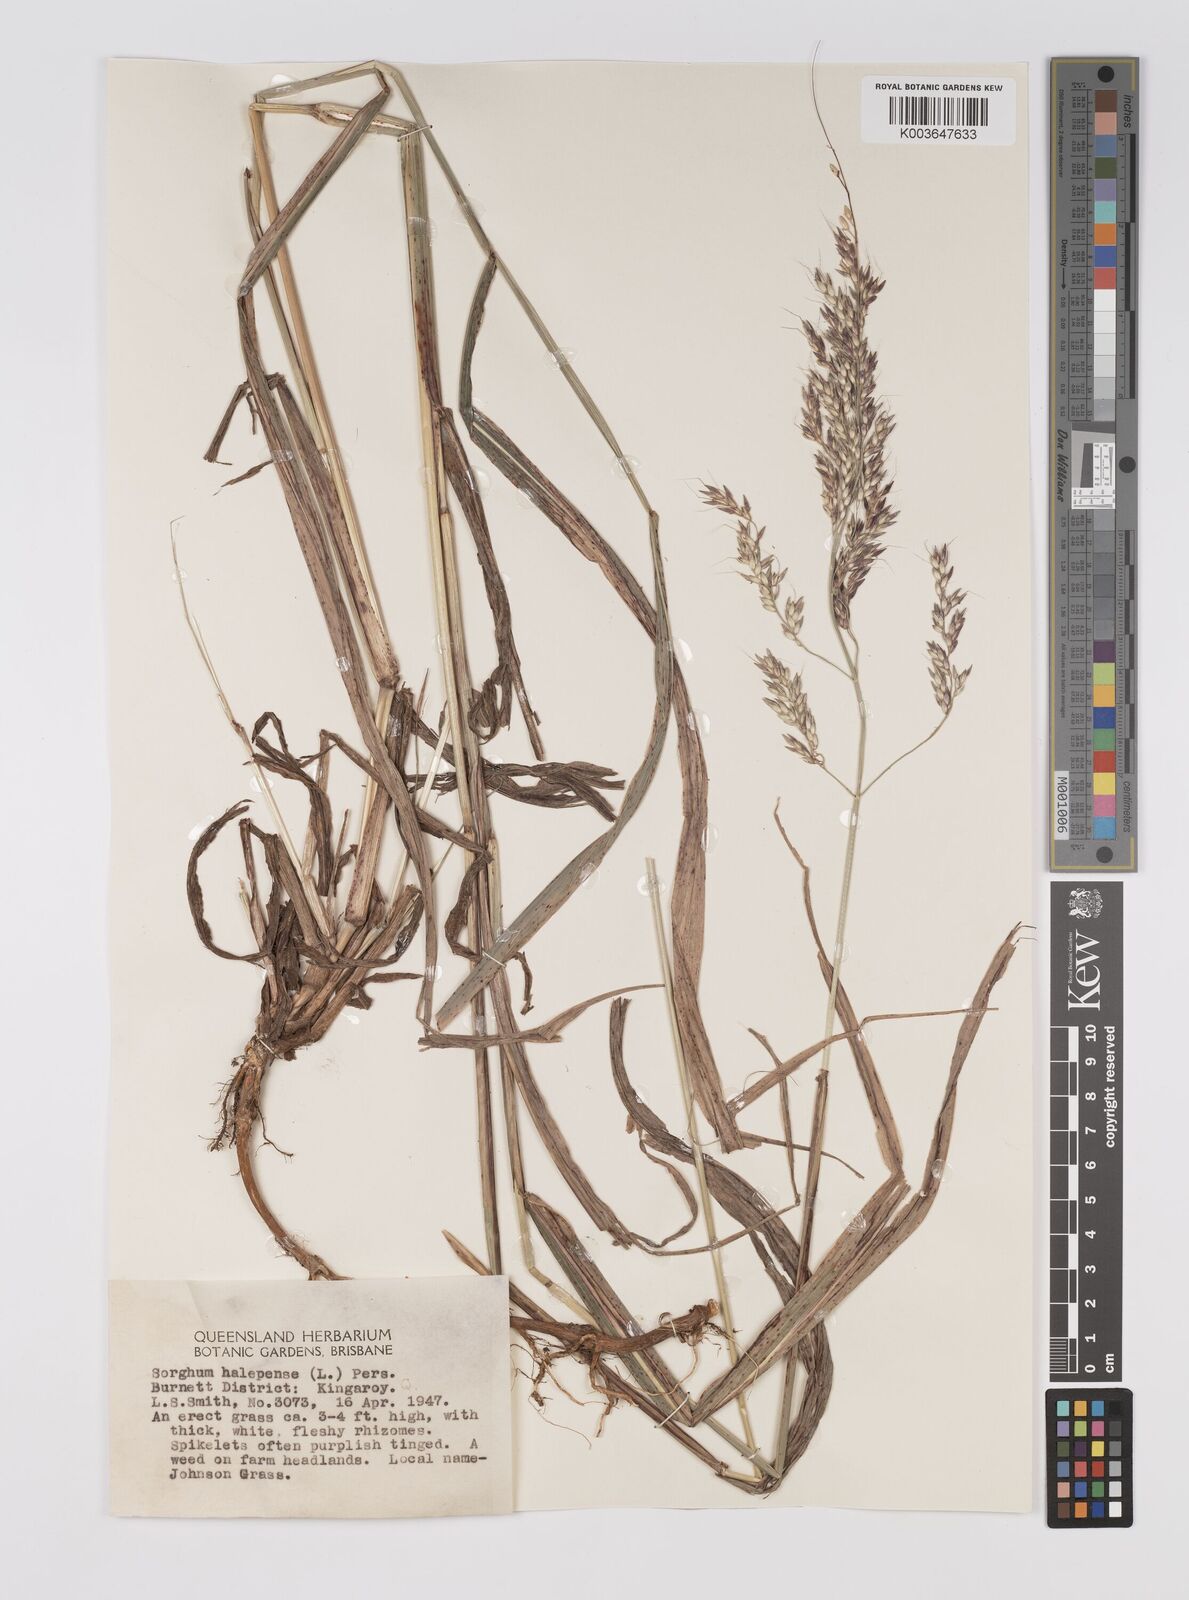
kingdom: Plantae
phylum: Tracheophyta
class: Liliopsida
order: Poales
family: Poaceae
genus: Sorghum
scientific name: Sorghum halepense
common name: Johnson-grass
